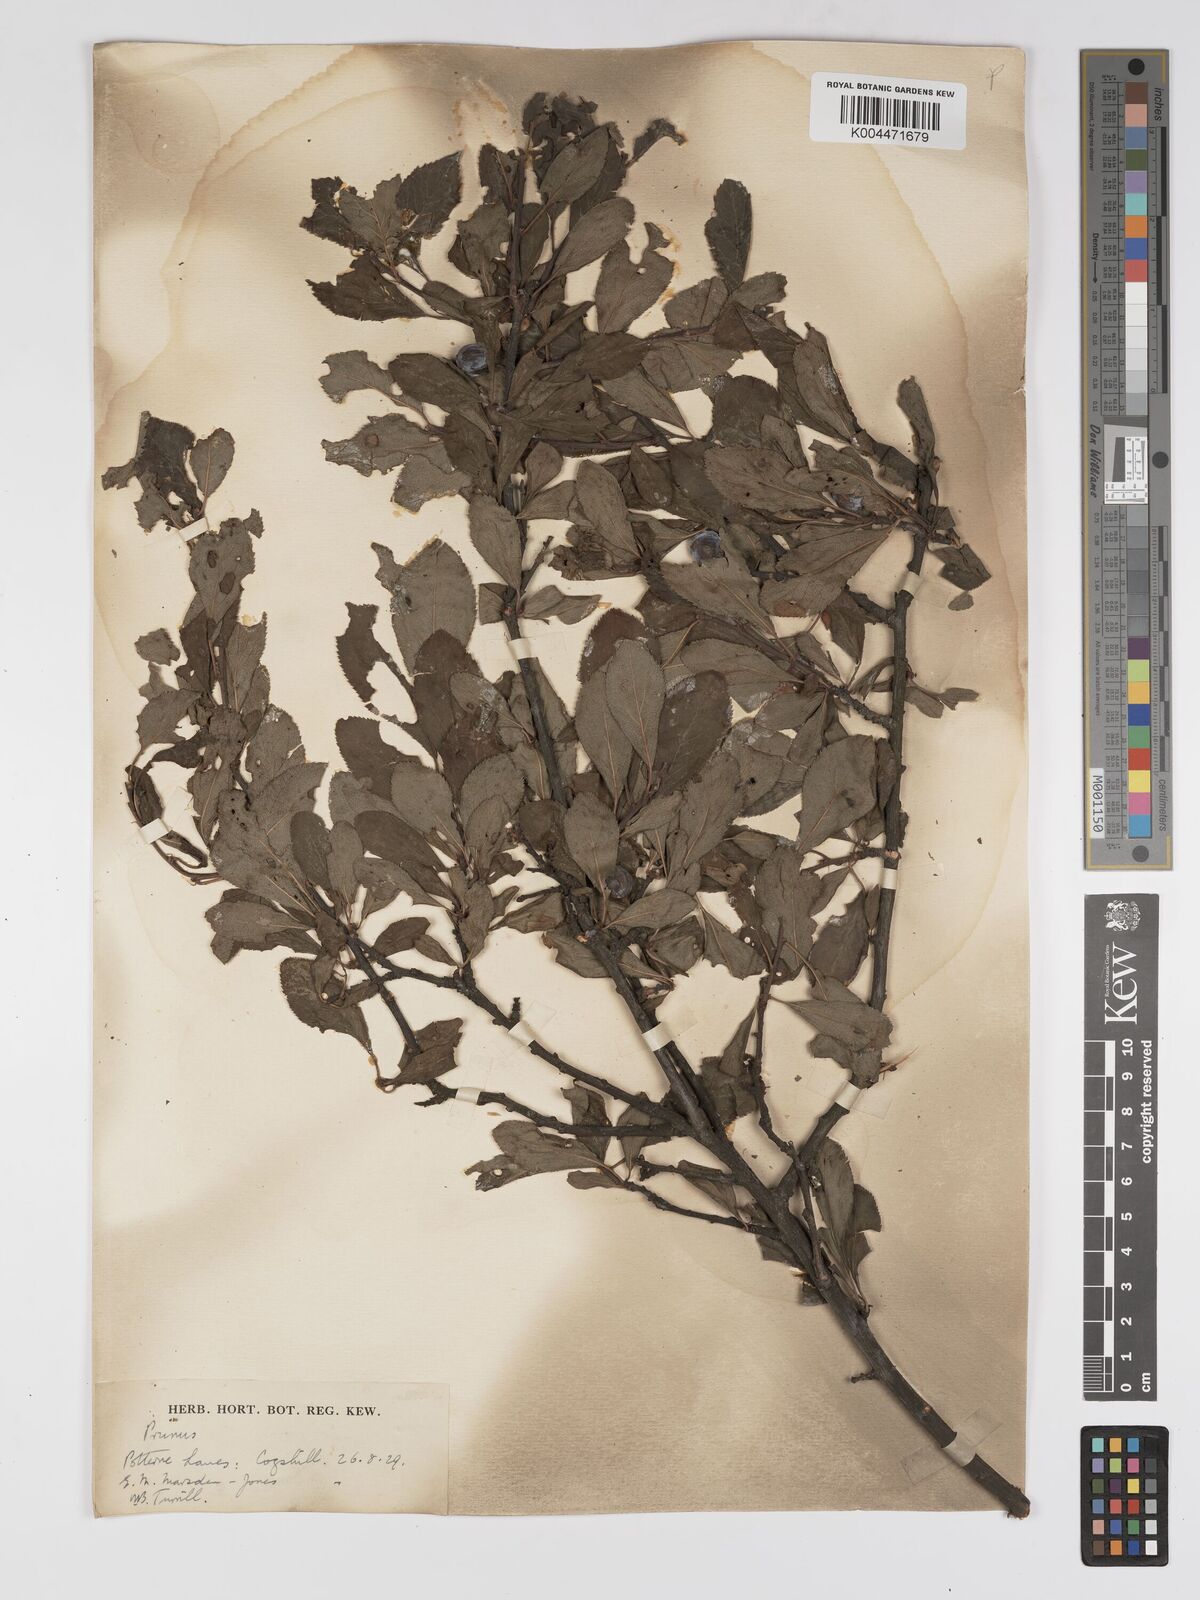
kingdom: Plantae
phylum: Tracheophyta
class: Magnoliopsida
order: Rosales
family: Rosaceae
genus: Prunus
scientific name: Prunus
